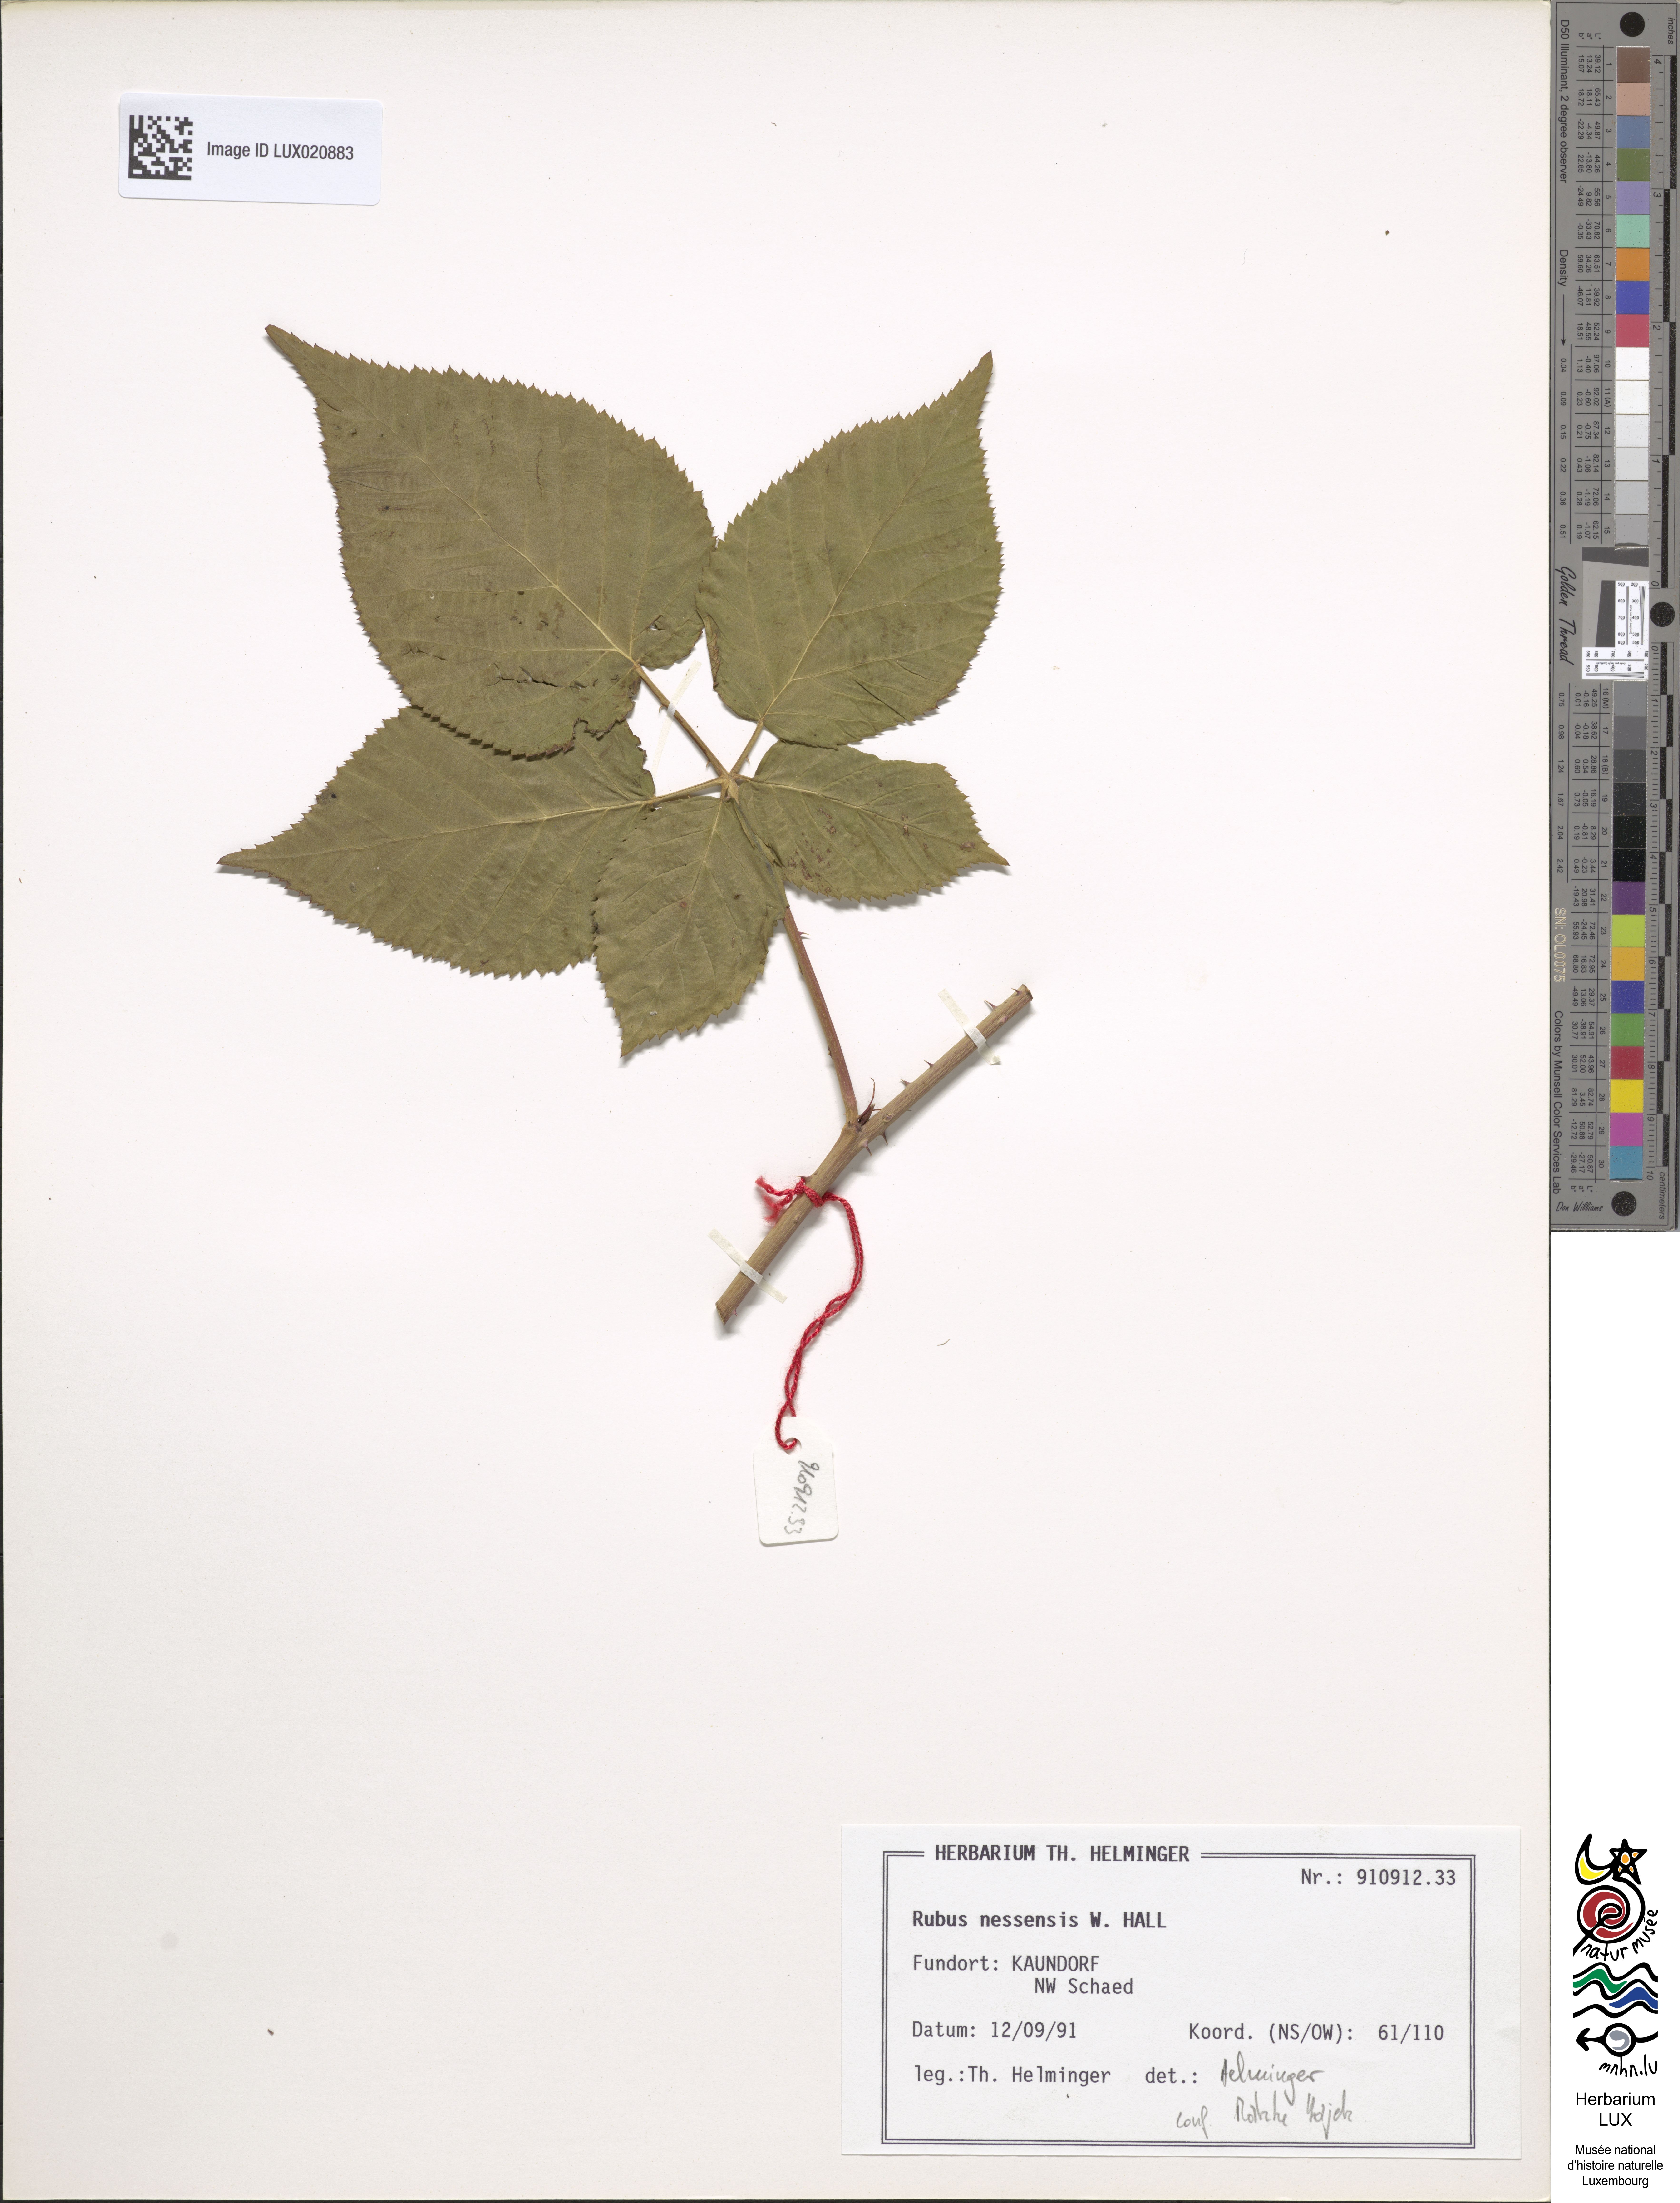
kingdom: Plantae
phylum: Tracheophyta
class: Magnoliopsida
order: Rosales
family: Rosaceae
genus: Rubus
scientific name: Rubus polonicus
